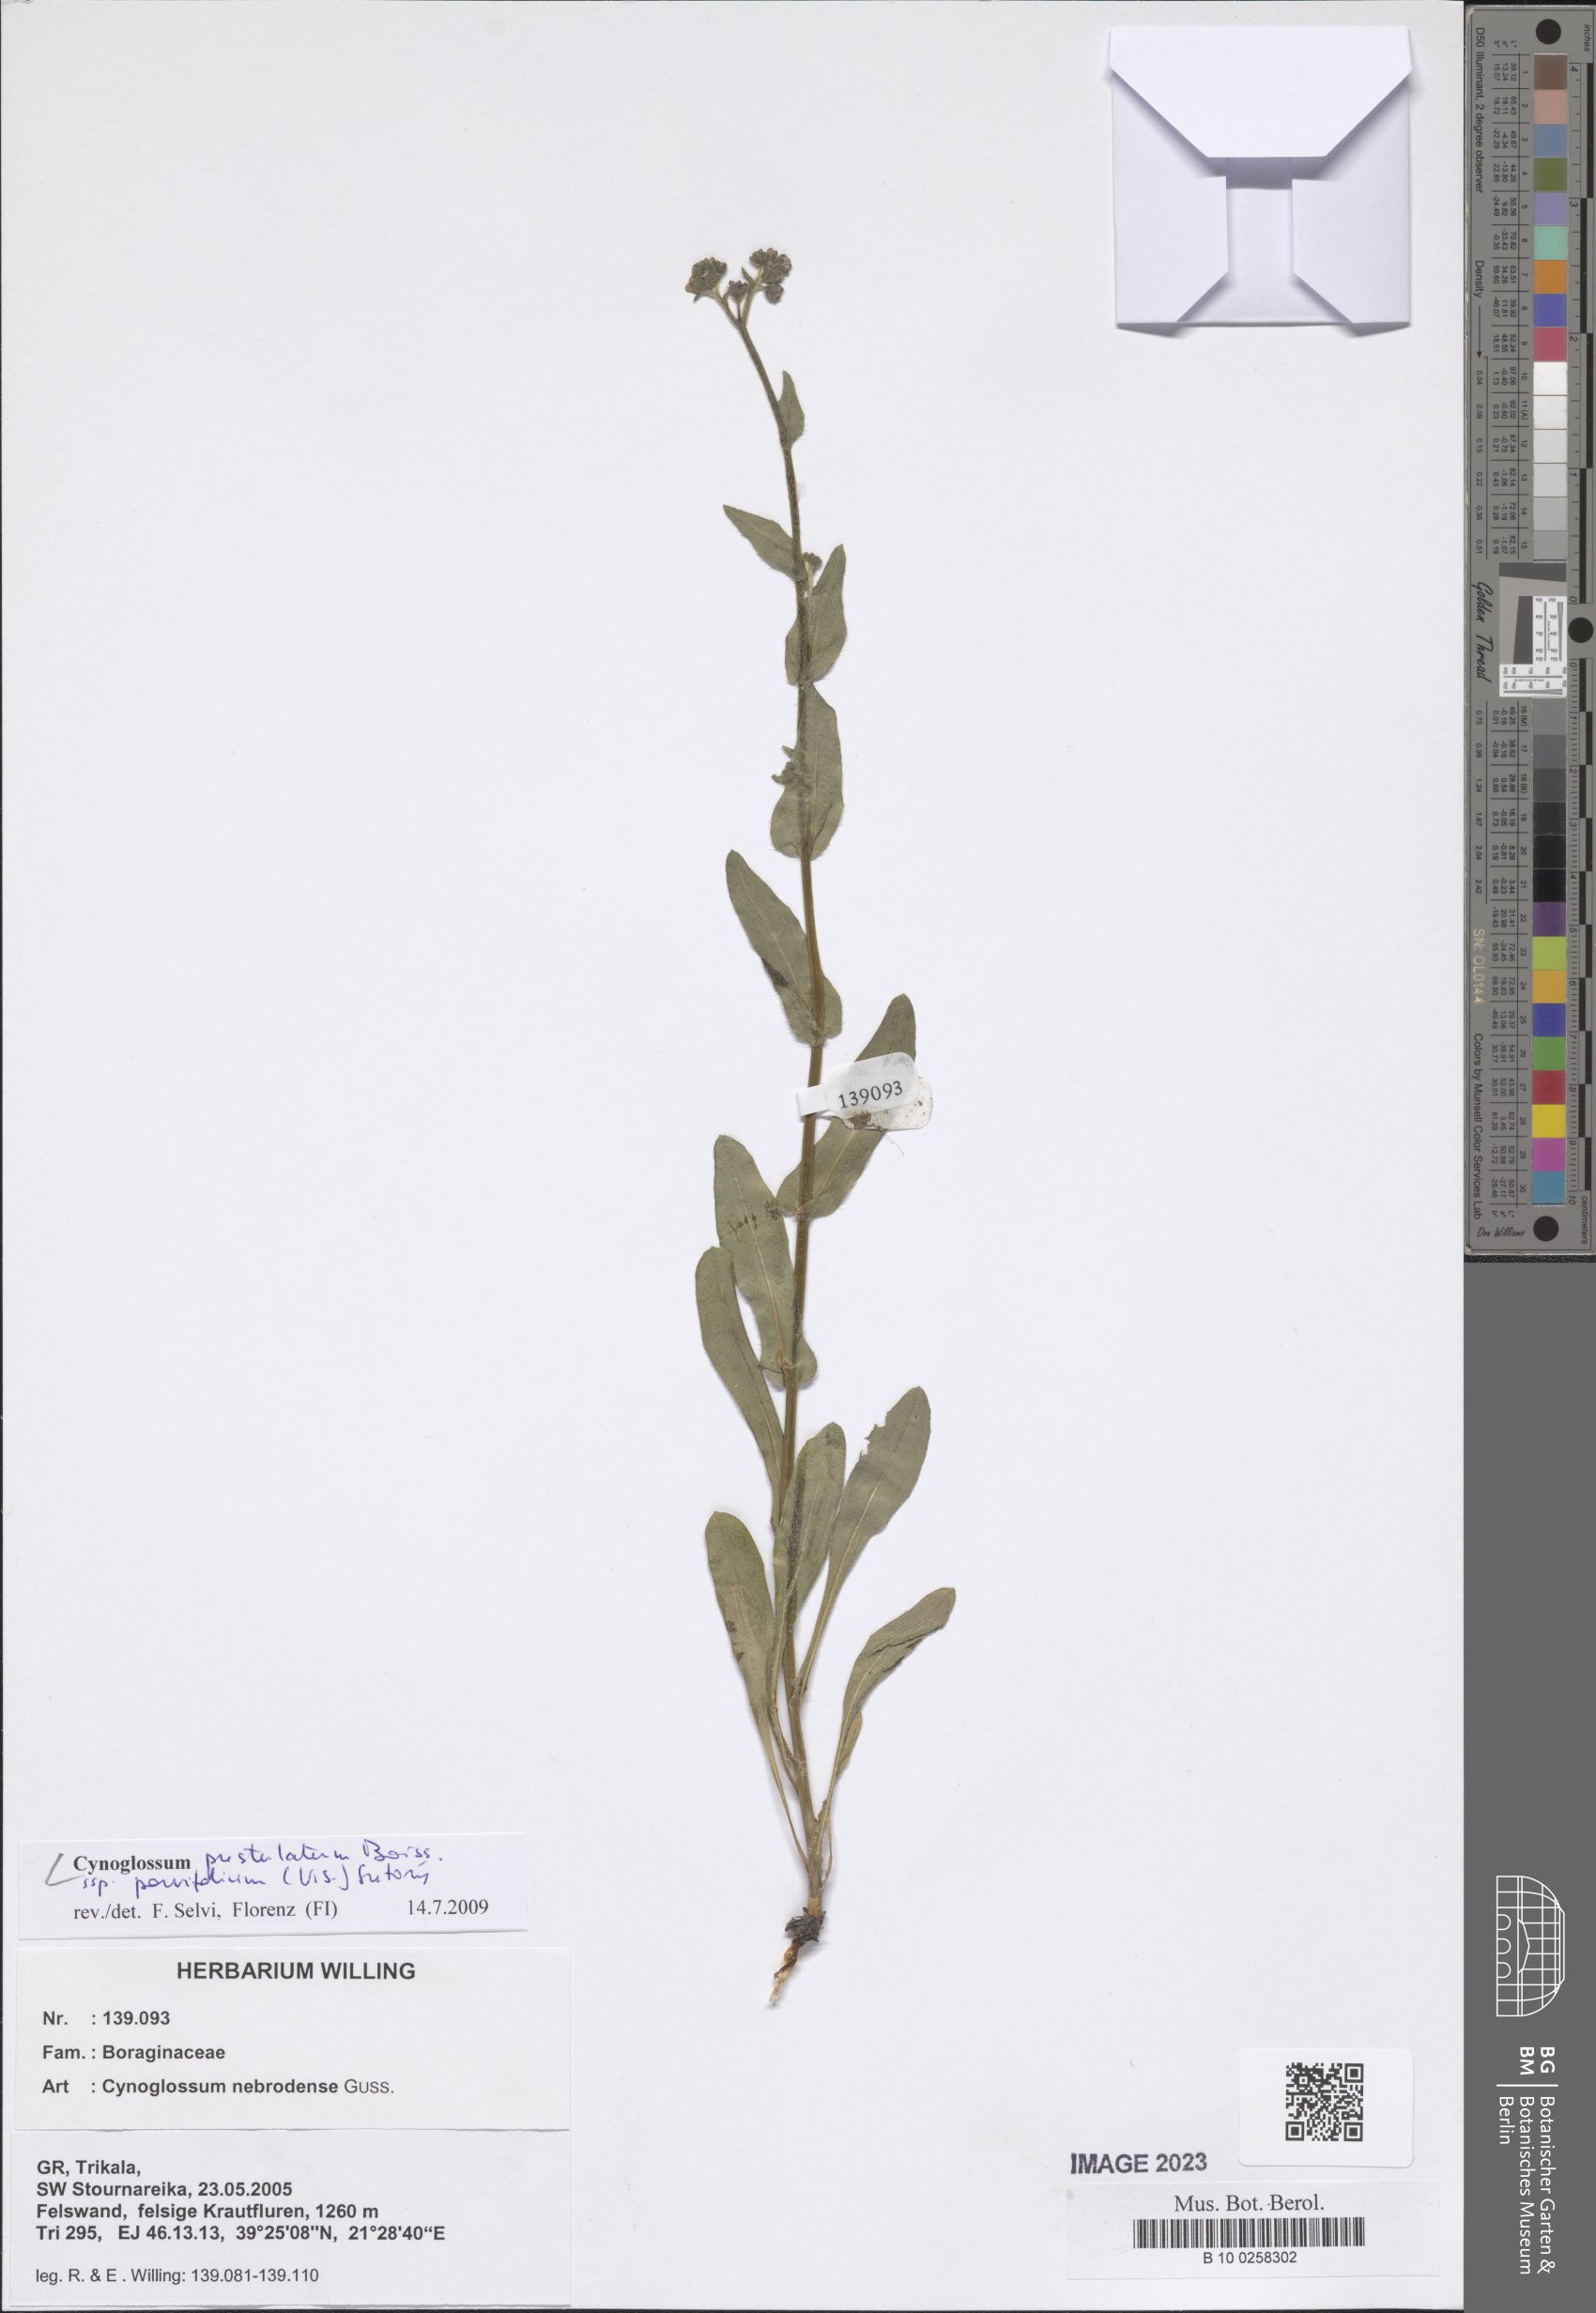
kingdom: Plantae
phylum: Tracheophyta
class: Magnoliopsida
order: Boraginales
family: Boraginaceae
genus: Cynoglossum
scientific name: Cynoglossum pustulatum
